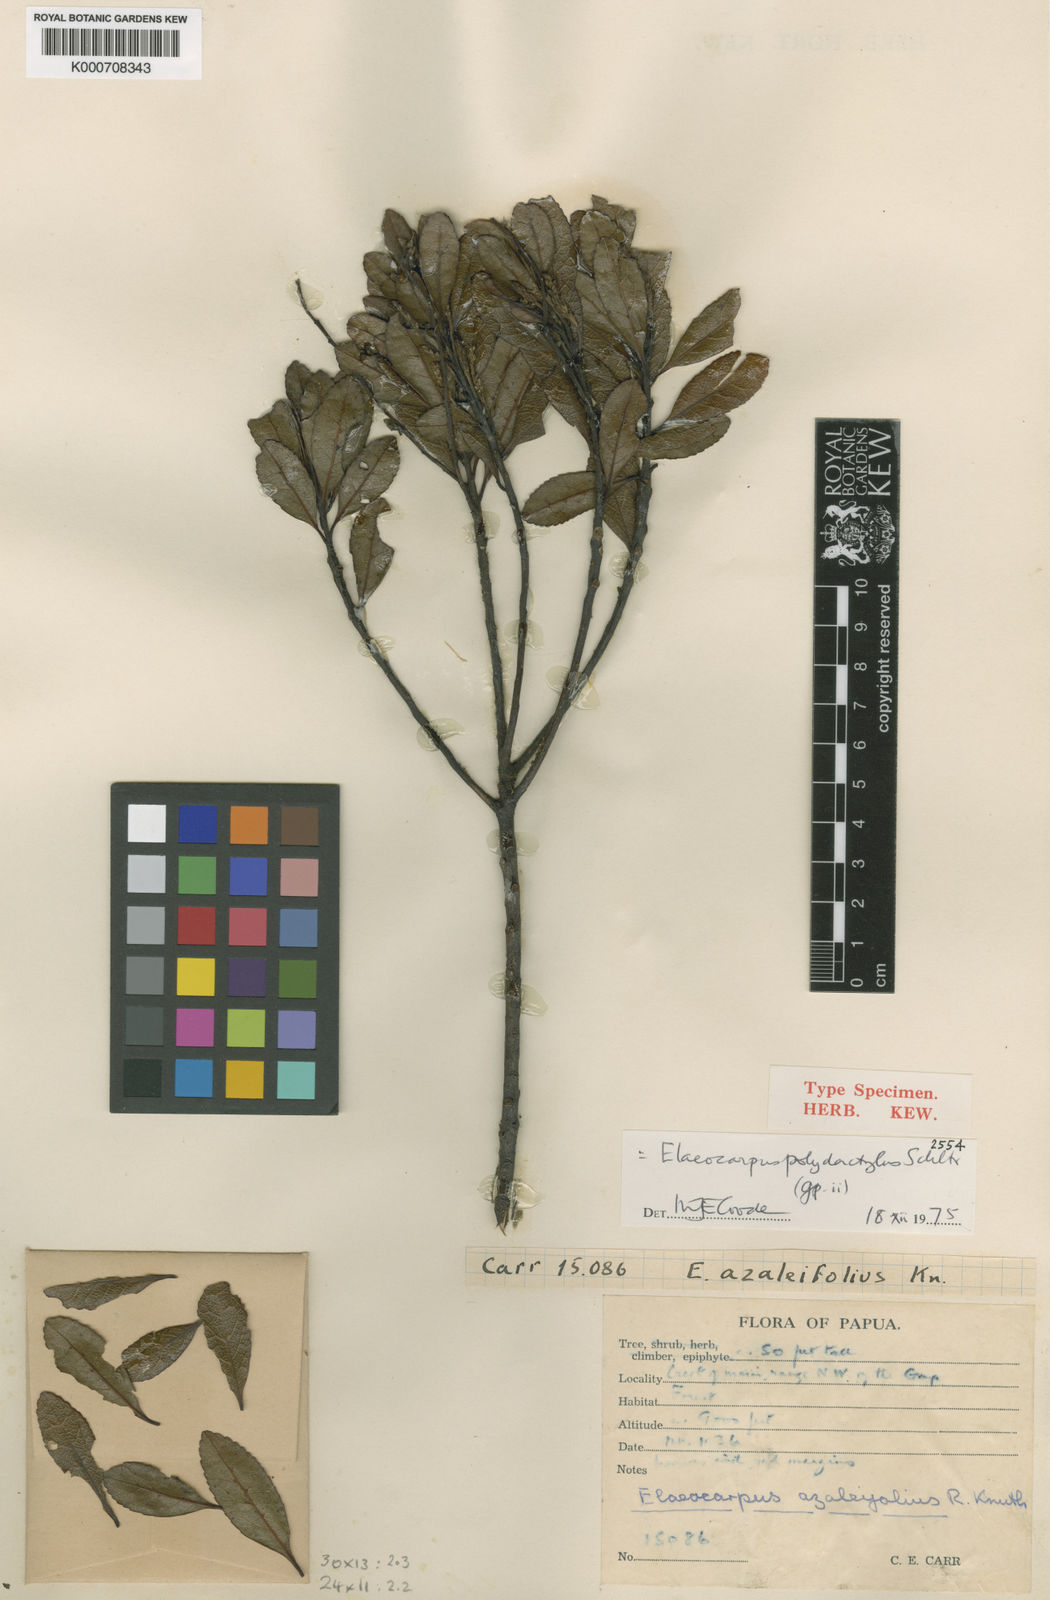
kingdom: Plantae
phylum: Tracheophyta
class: Magnoliopsida
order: Oxalidales
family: Elaeocarpaceae
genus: Elaeocarpus
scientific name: Elaeocarpus polydactylus
